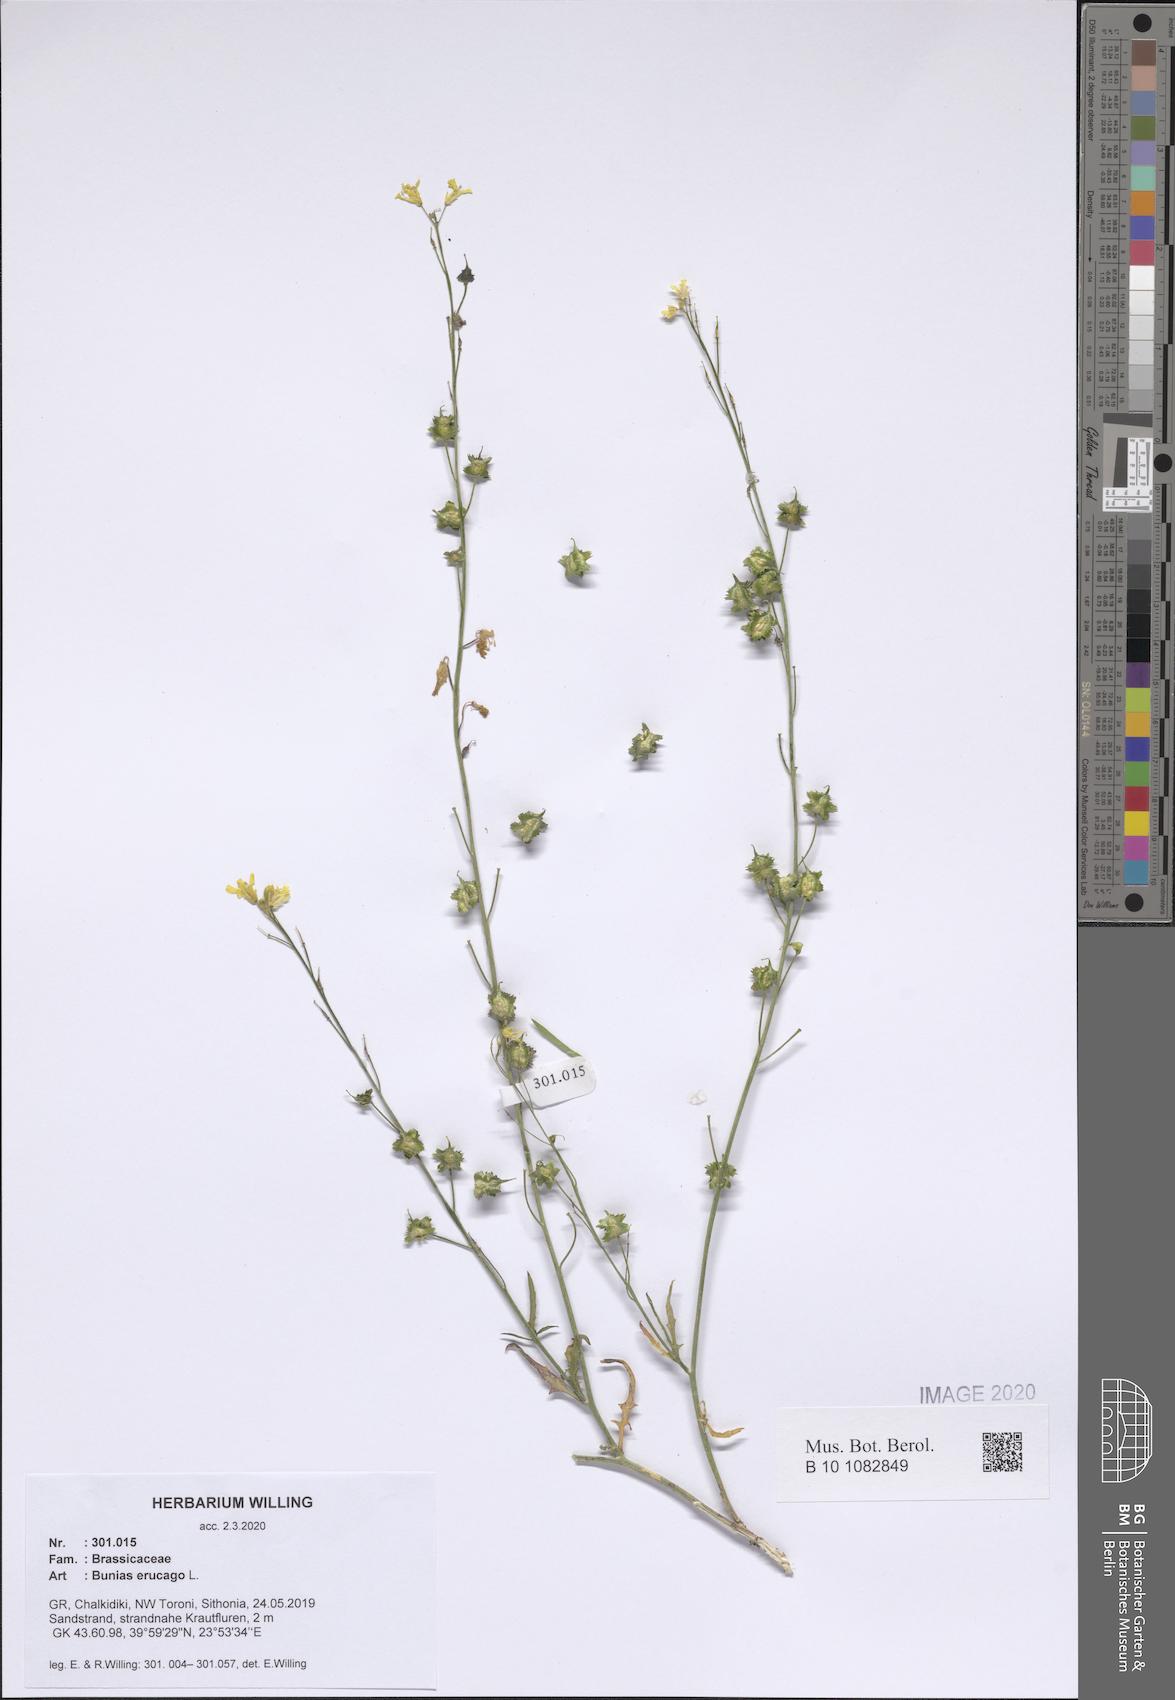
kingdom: Plantae
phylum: Tracheophyta
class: Magnoliopsida
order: Brassicales
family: Brassicaceae
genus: Bunias
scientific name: Bunias erucago
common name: Southern warty-cabbage
